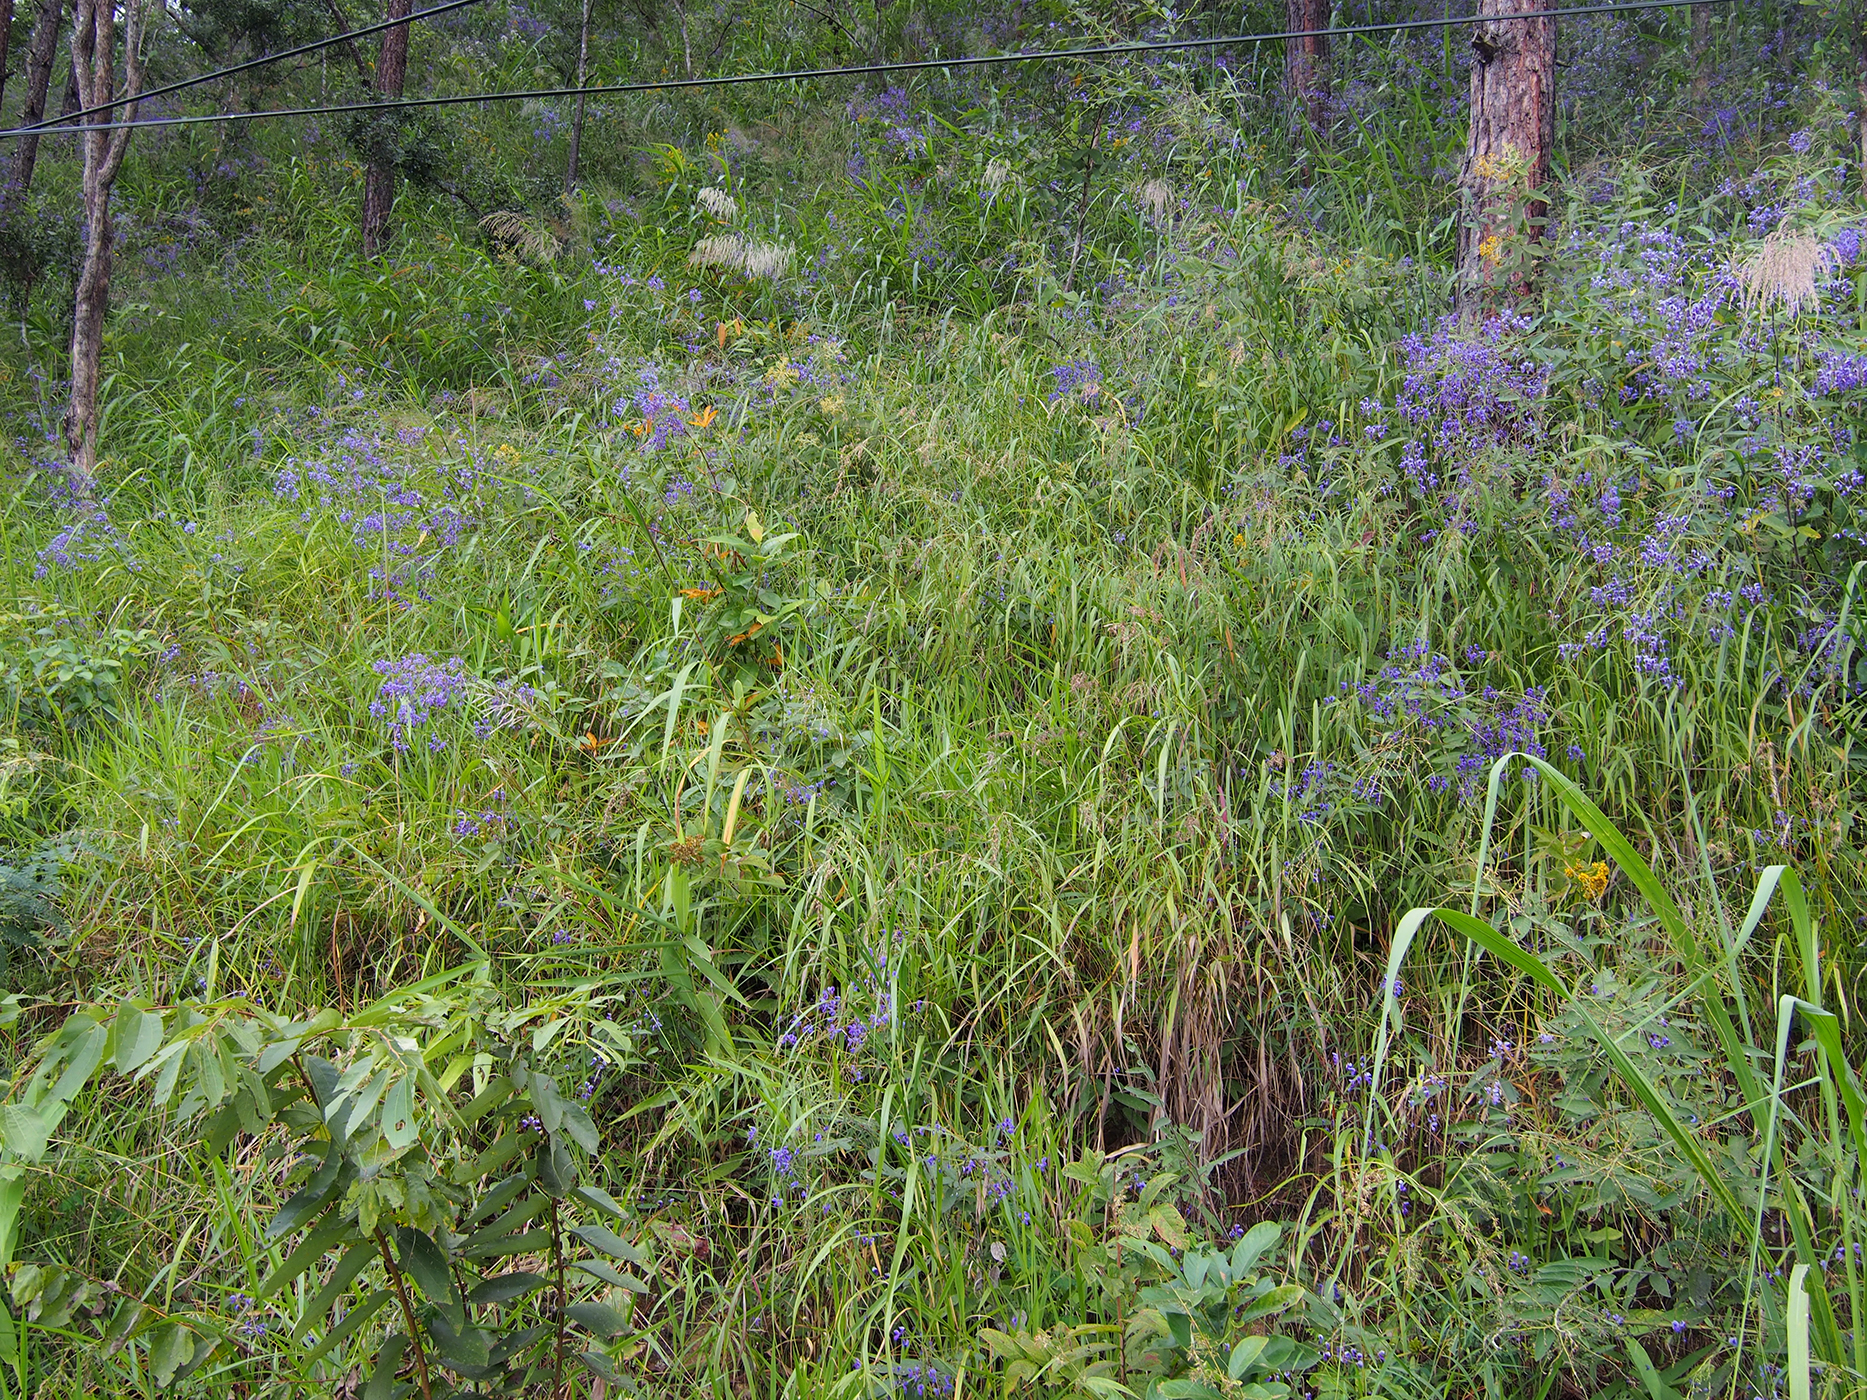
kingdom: Plantae
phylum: Tracheophyta
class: Magnoliopsida
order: Fabales
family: Fabaceae
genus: Uraria
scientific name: Uraria oblonga
